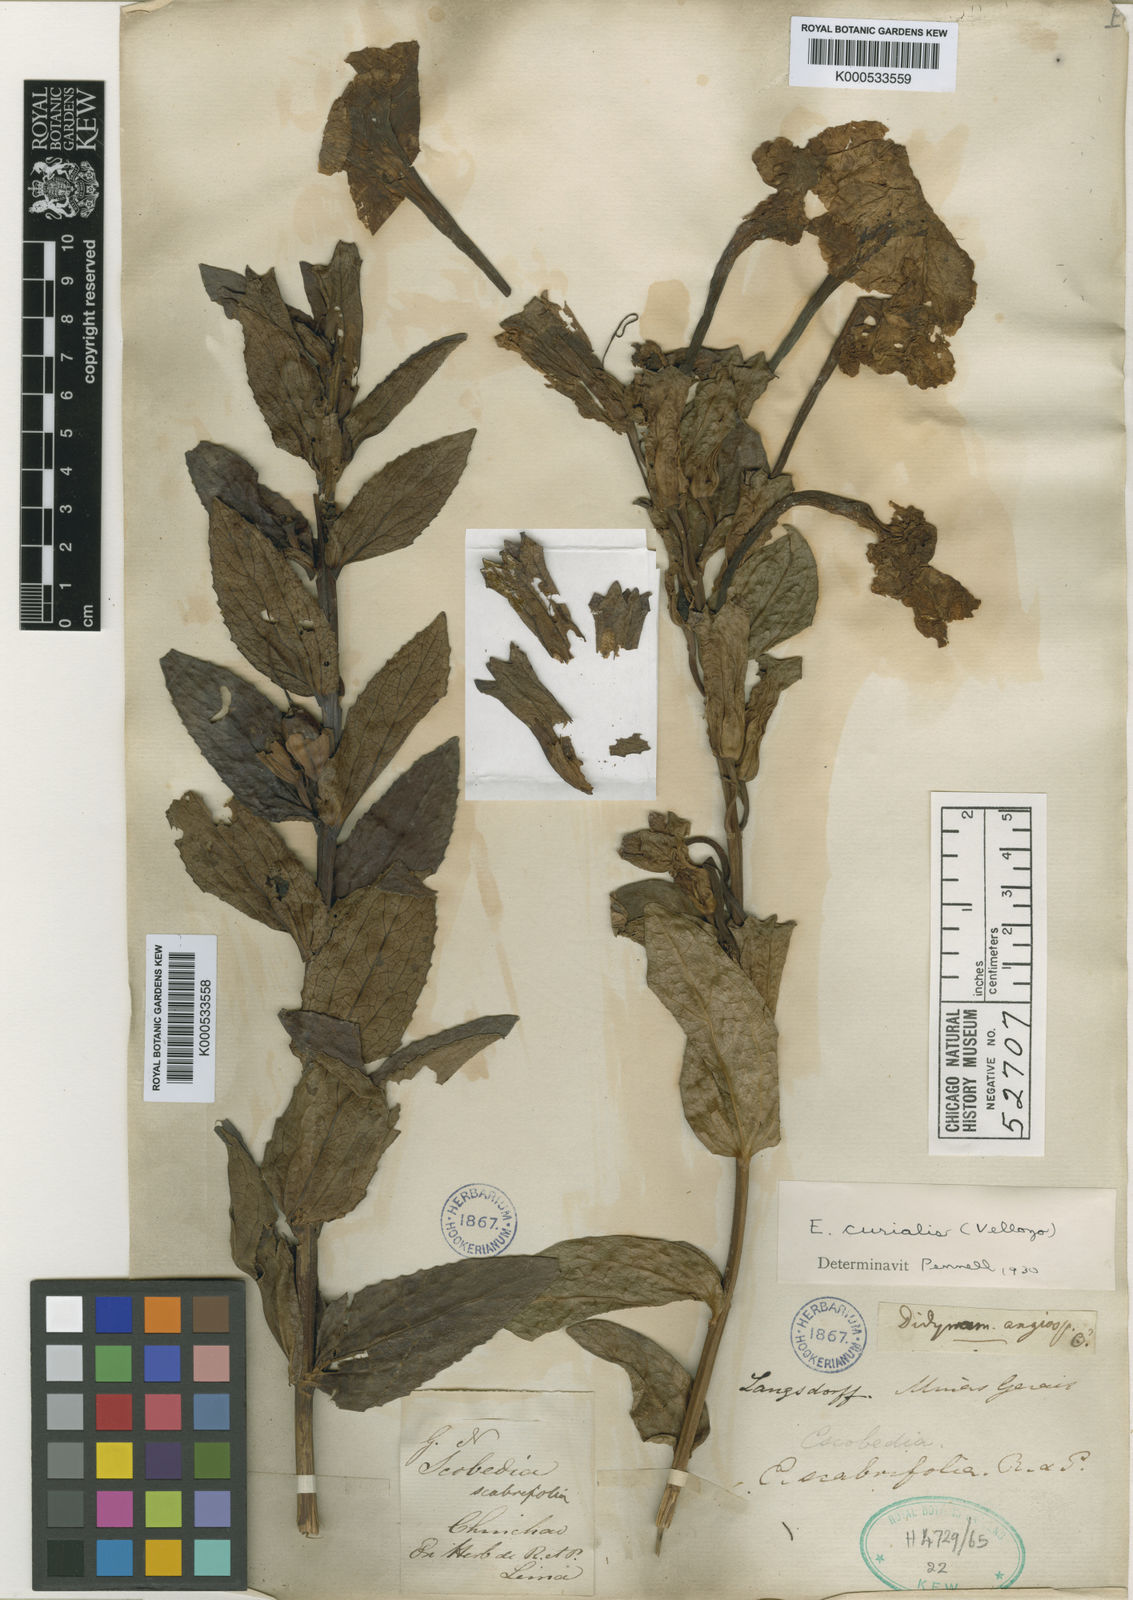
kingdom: Plantae
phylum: Tracheophyta
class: Magnoliopsida
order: Lamiales
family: Orobanchaceae
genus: Escobedia
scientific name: Escobedia grandiflora
